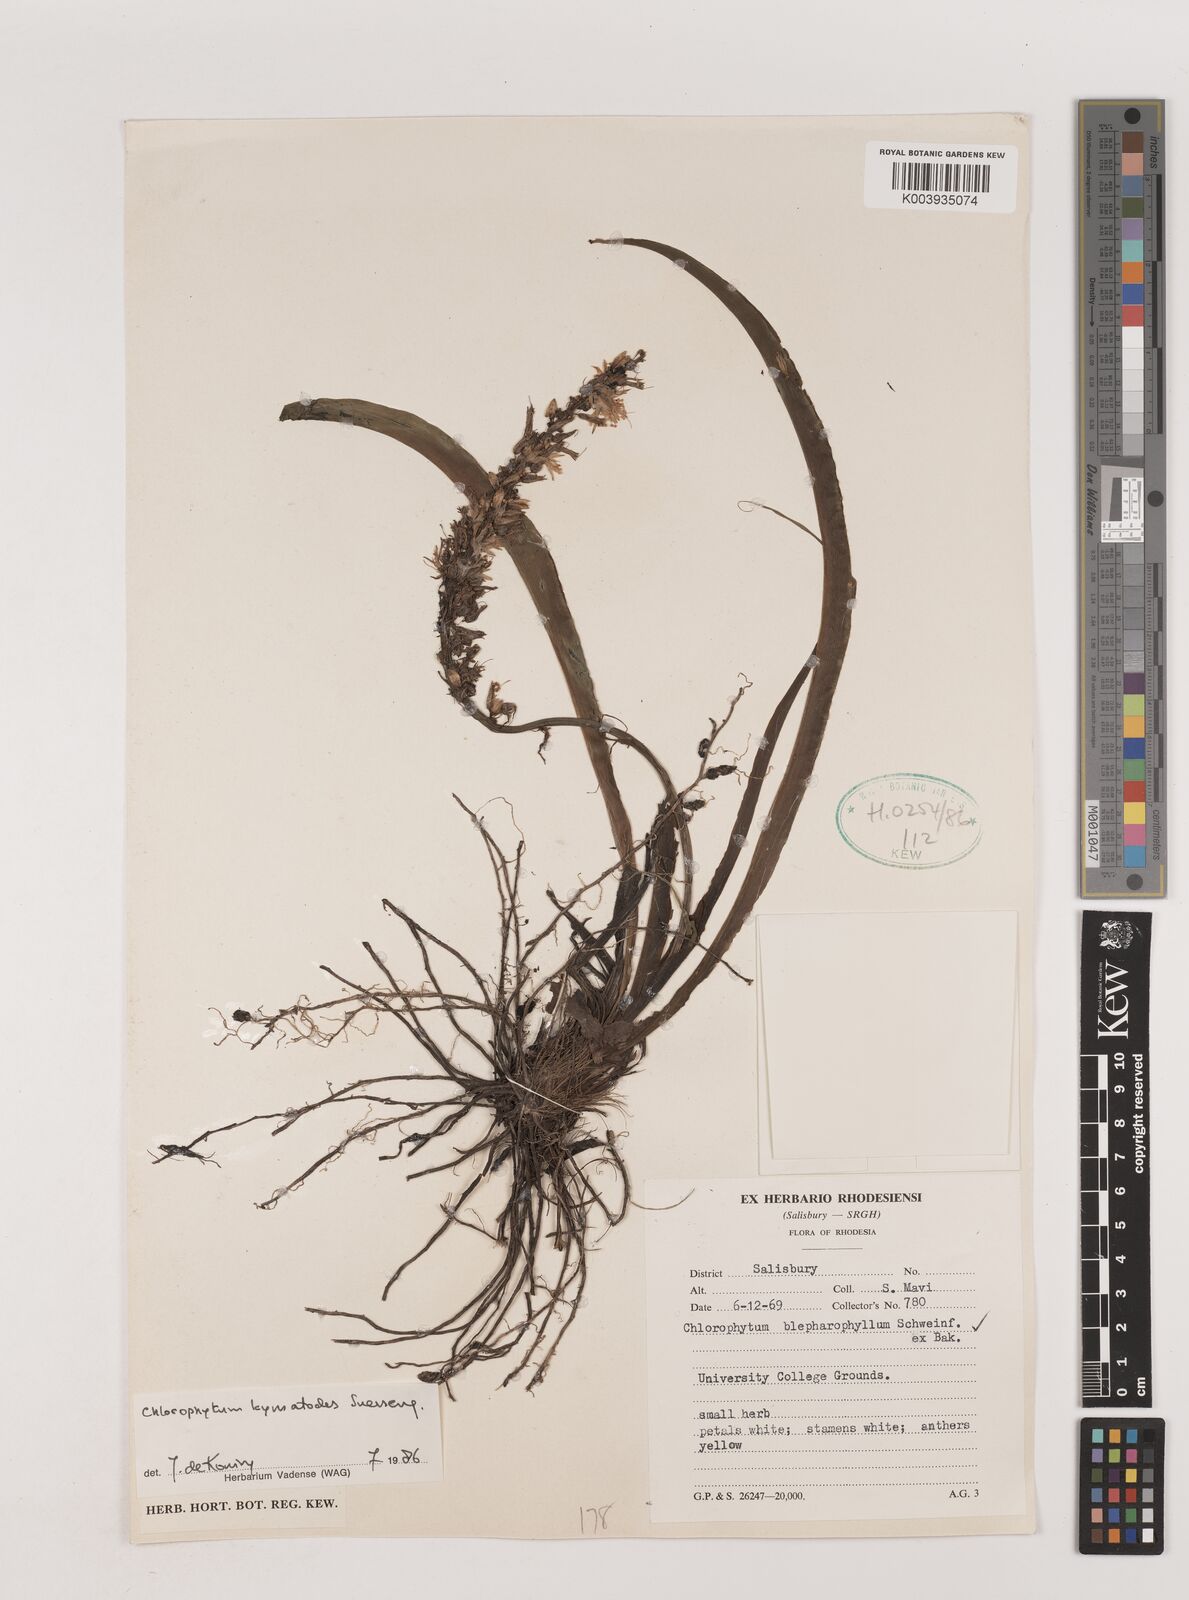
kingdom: Plantae
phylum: Tracheophyta
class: Liliopsida
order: Asparagales
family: Asparagaceae
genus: Chlorophytum
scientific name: Chlorophytum blepharophyllum
